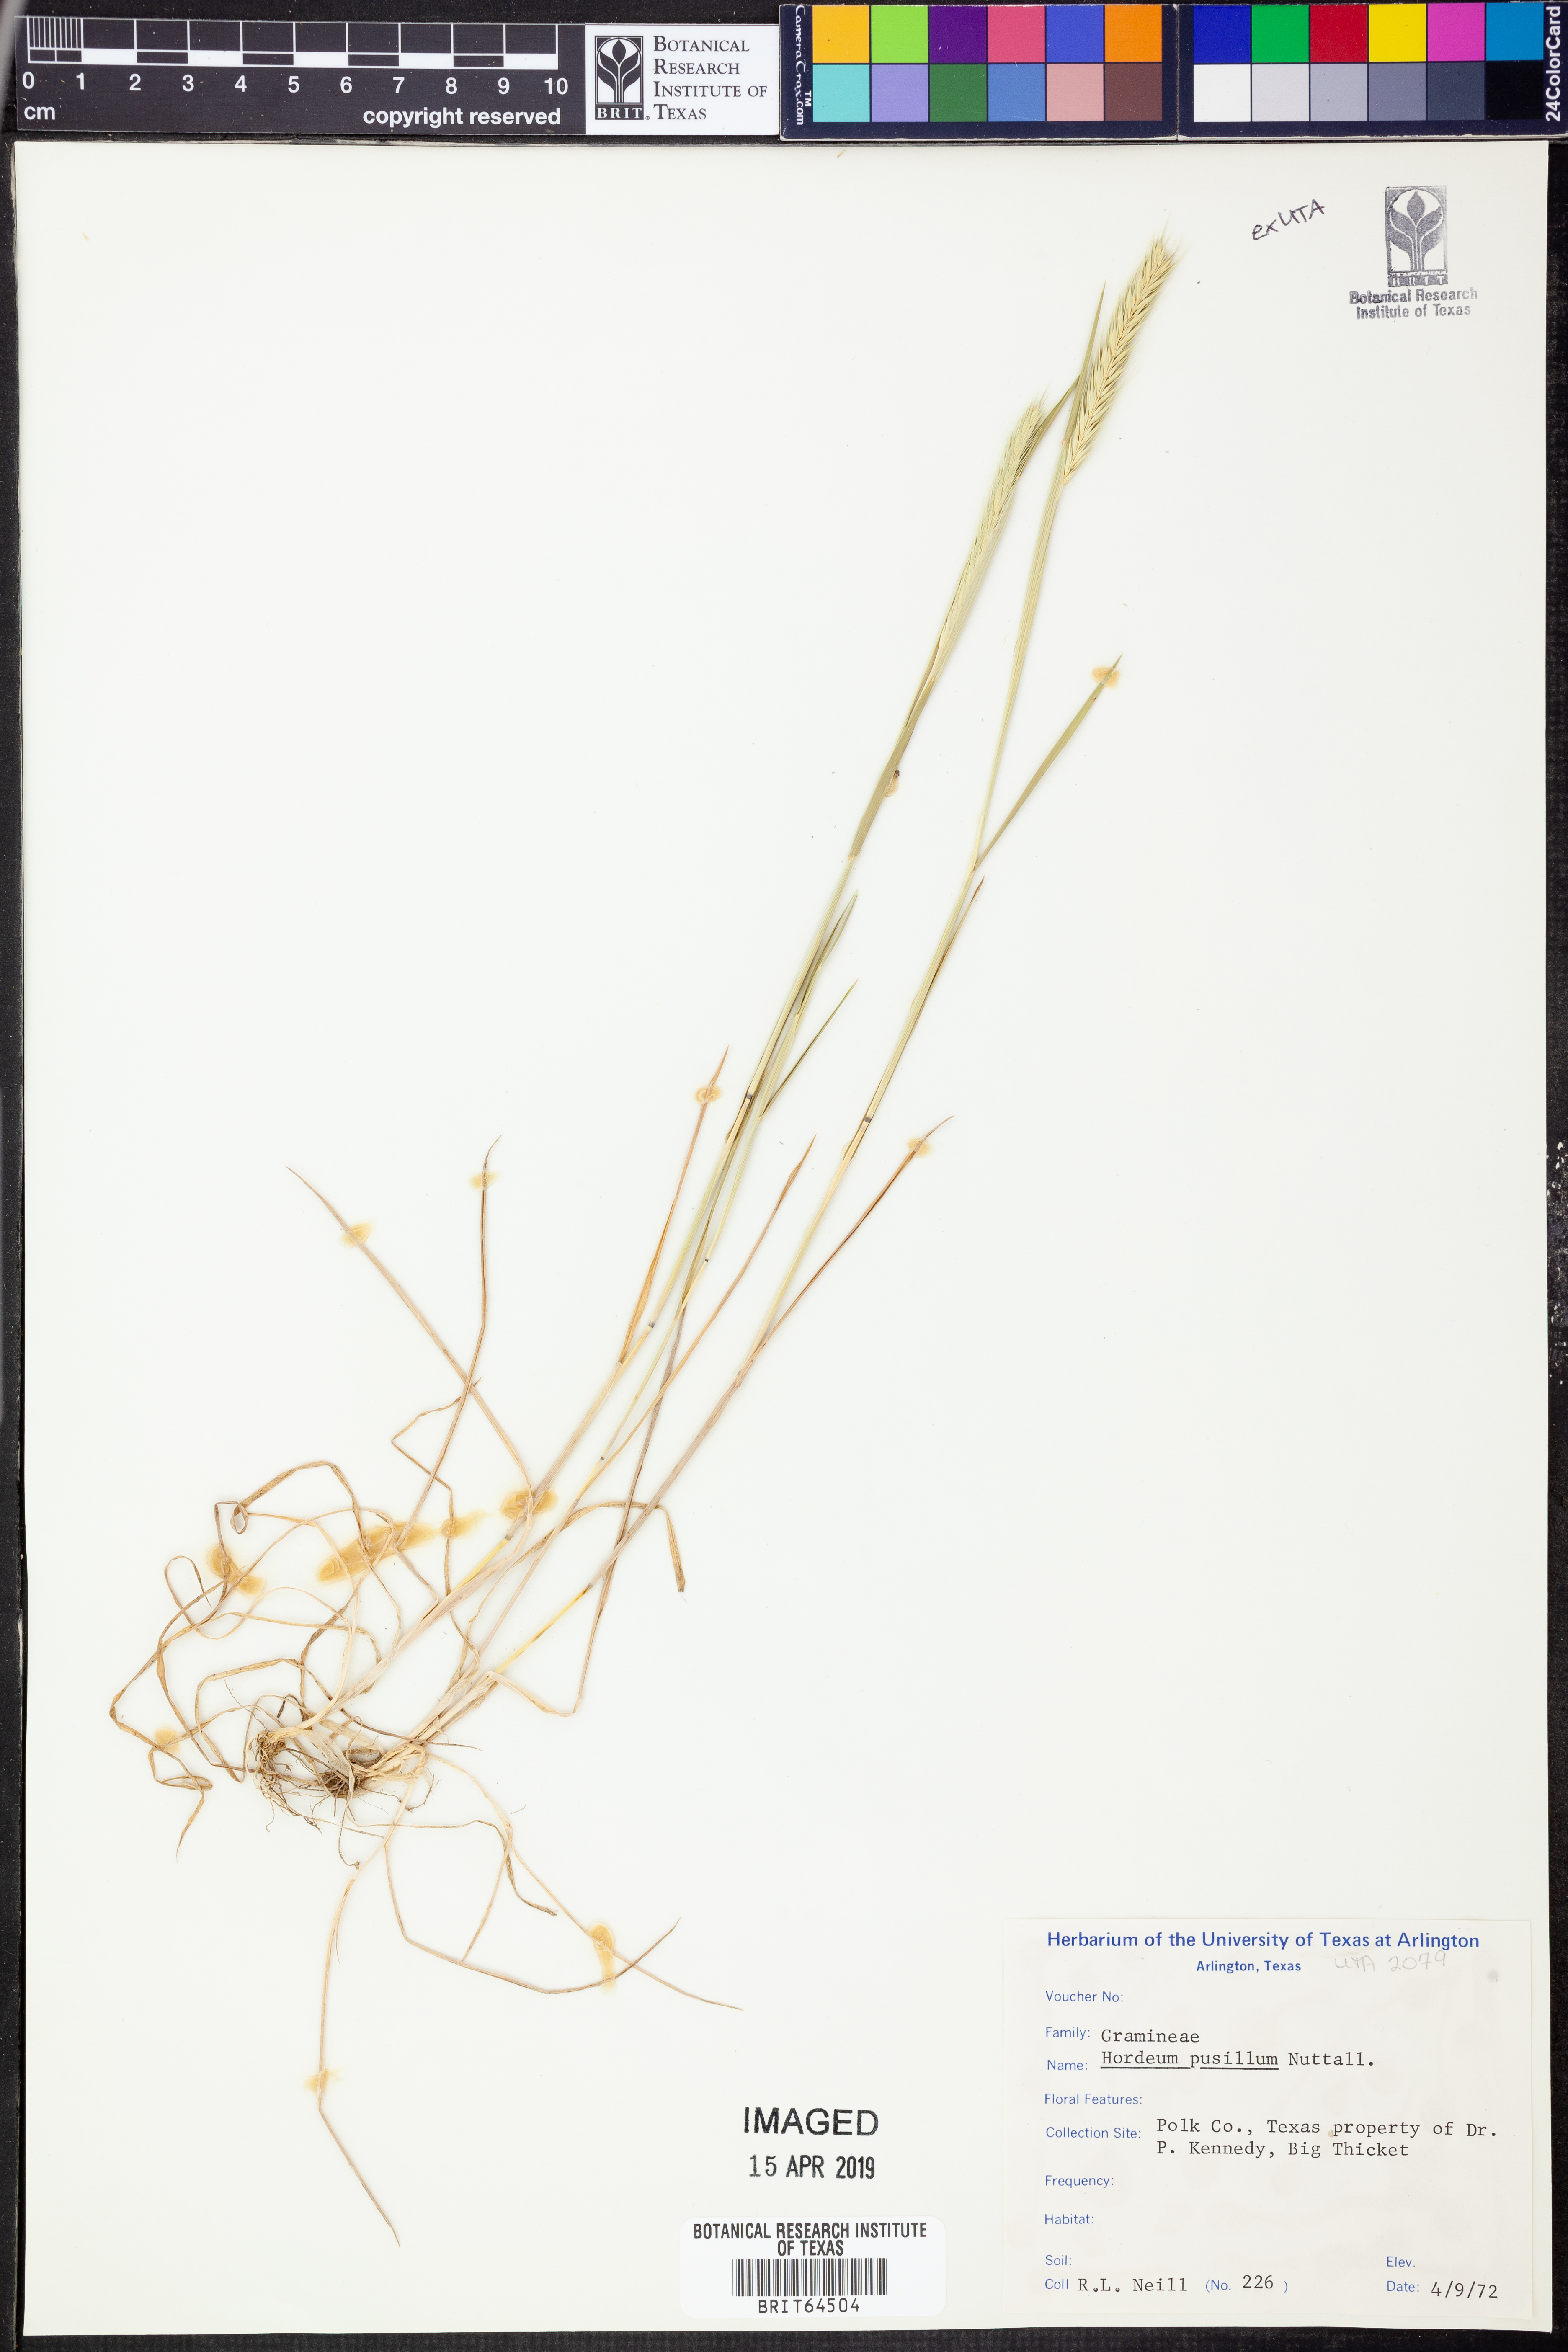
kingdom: Plantae
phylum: Tracheophyta
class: Liliopsida
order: Poales
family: Poaceae
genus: Hordeum
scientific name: Hordeum pusillum
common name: Little barley
